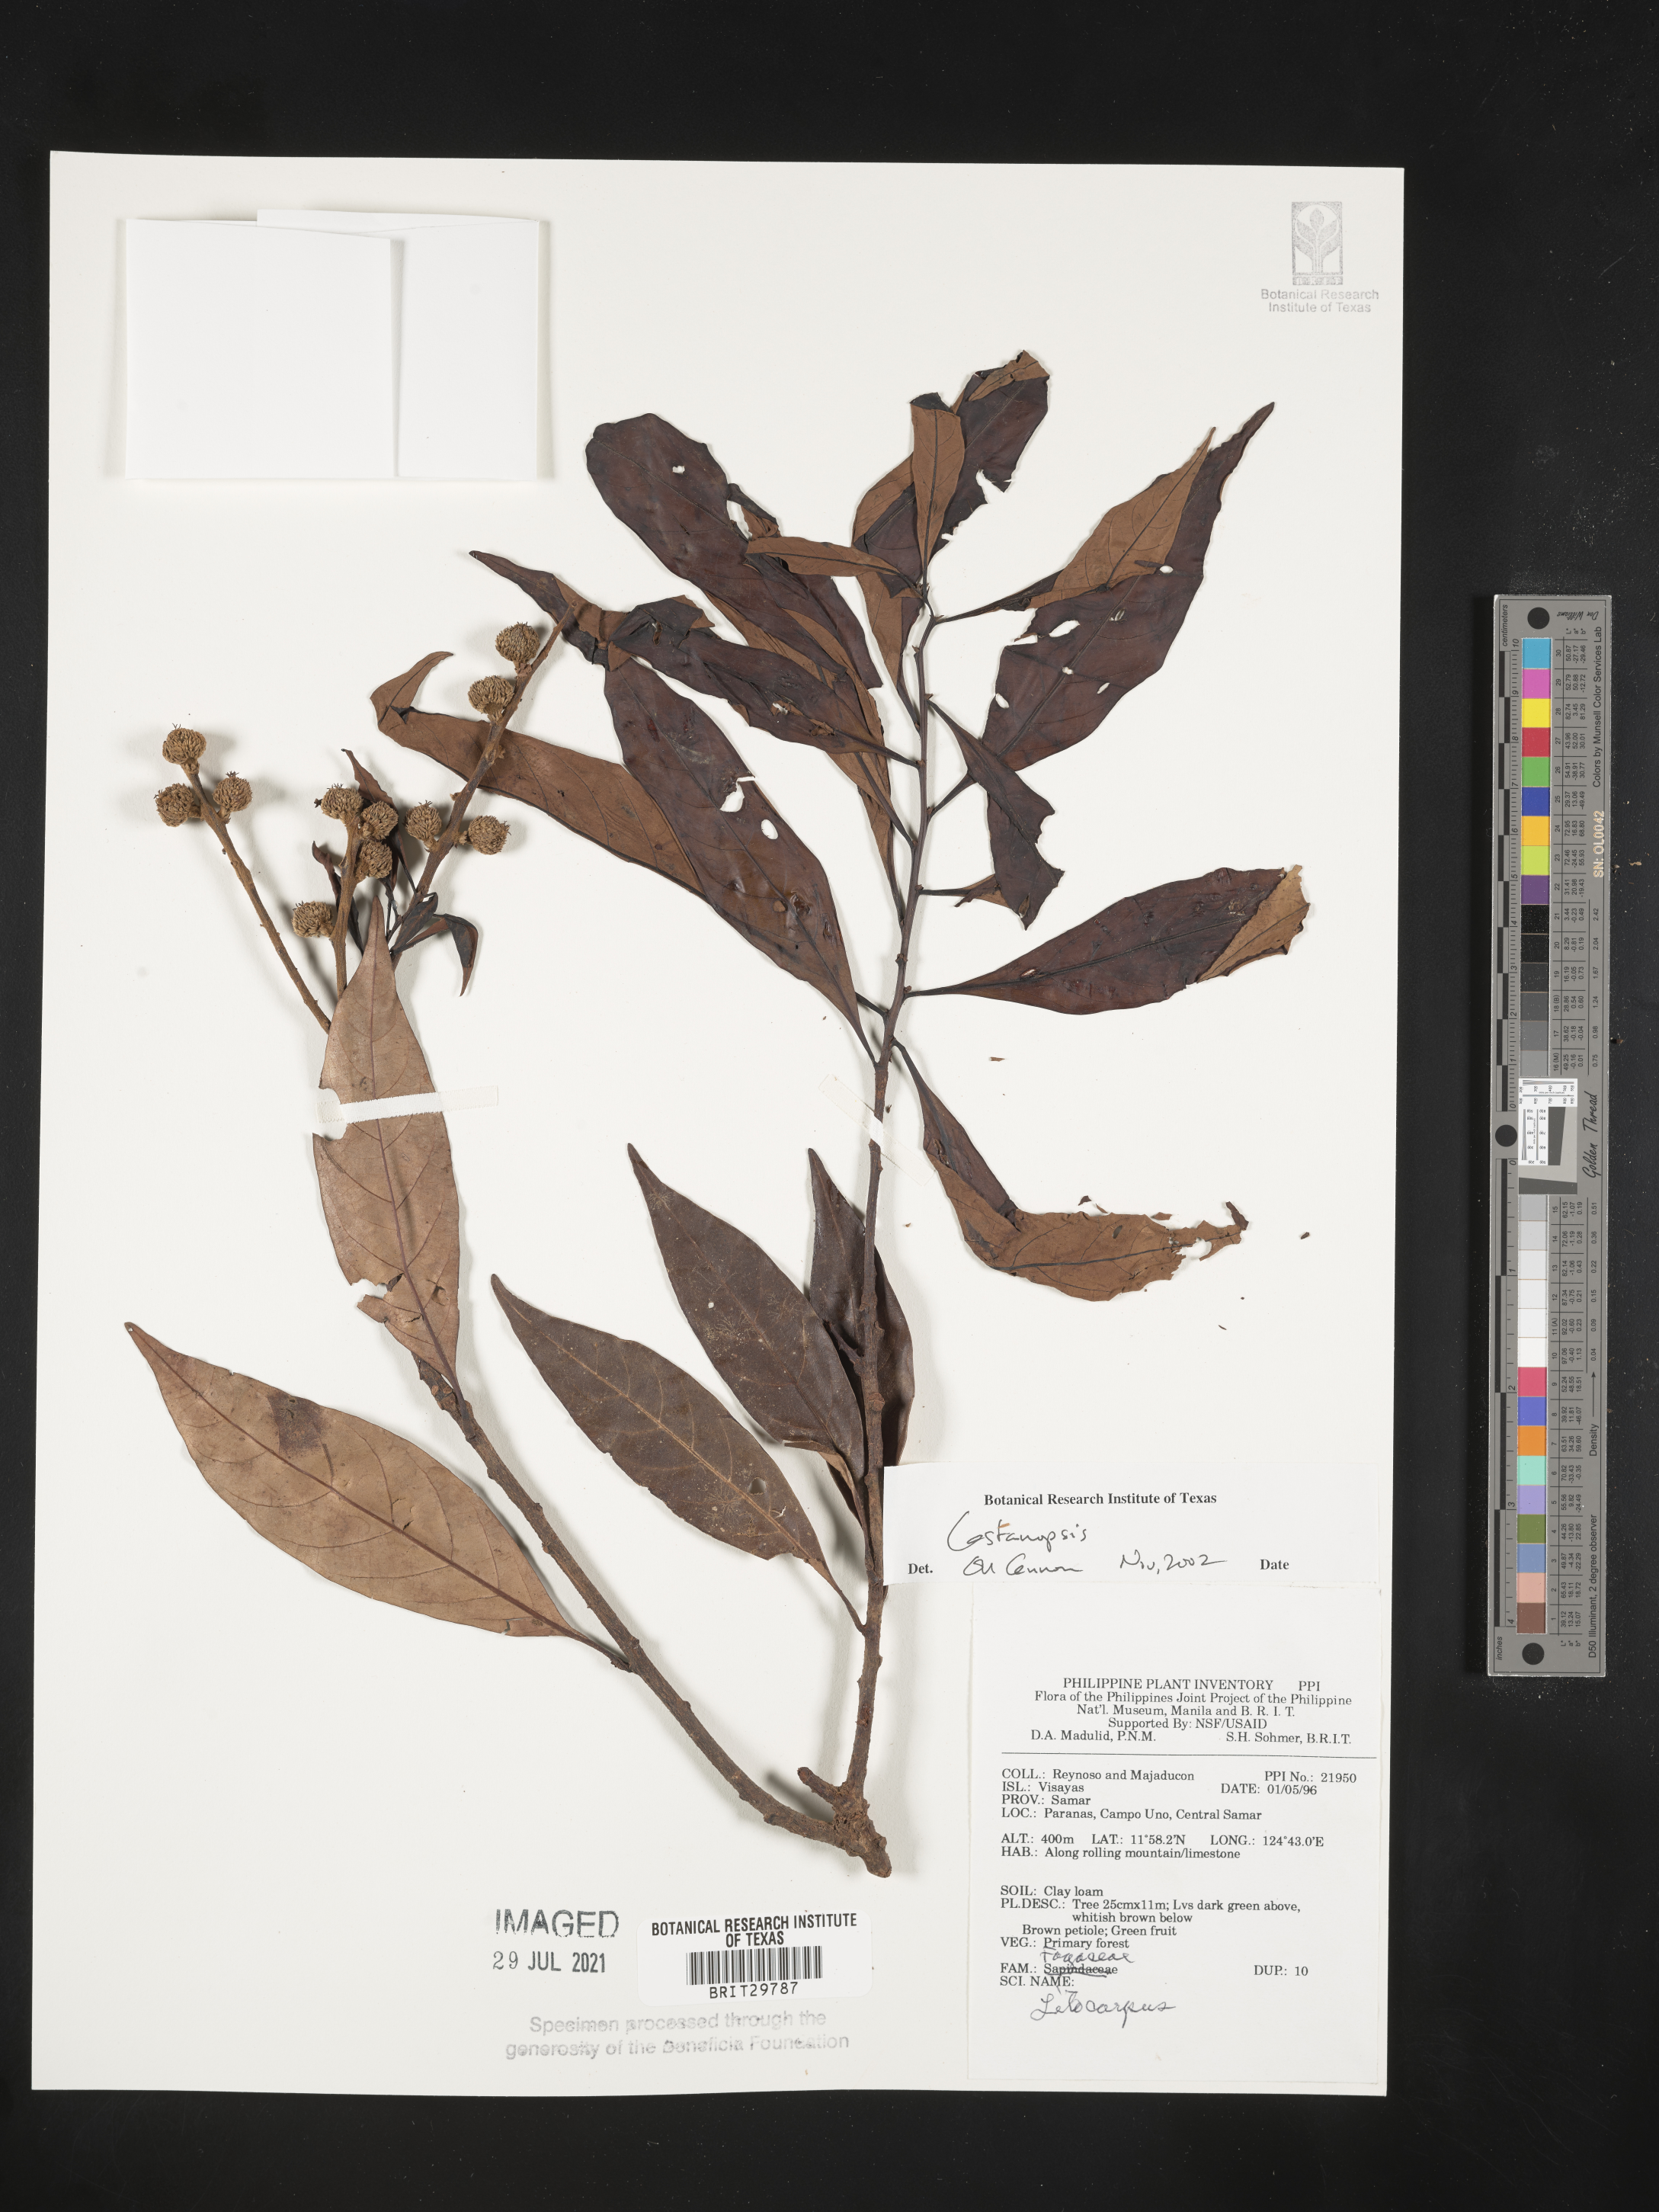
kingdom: Plantae
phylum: Tracheophyta
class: Magnoliopsida
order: Fagales
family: Fagaceae
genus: Castanopsis
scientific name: Castanopsis
